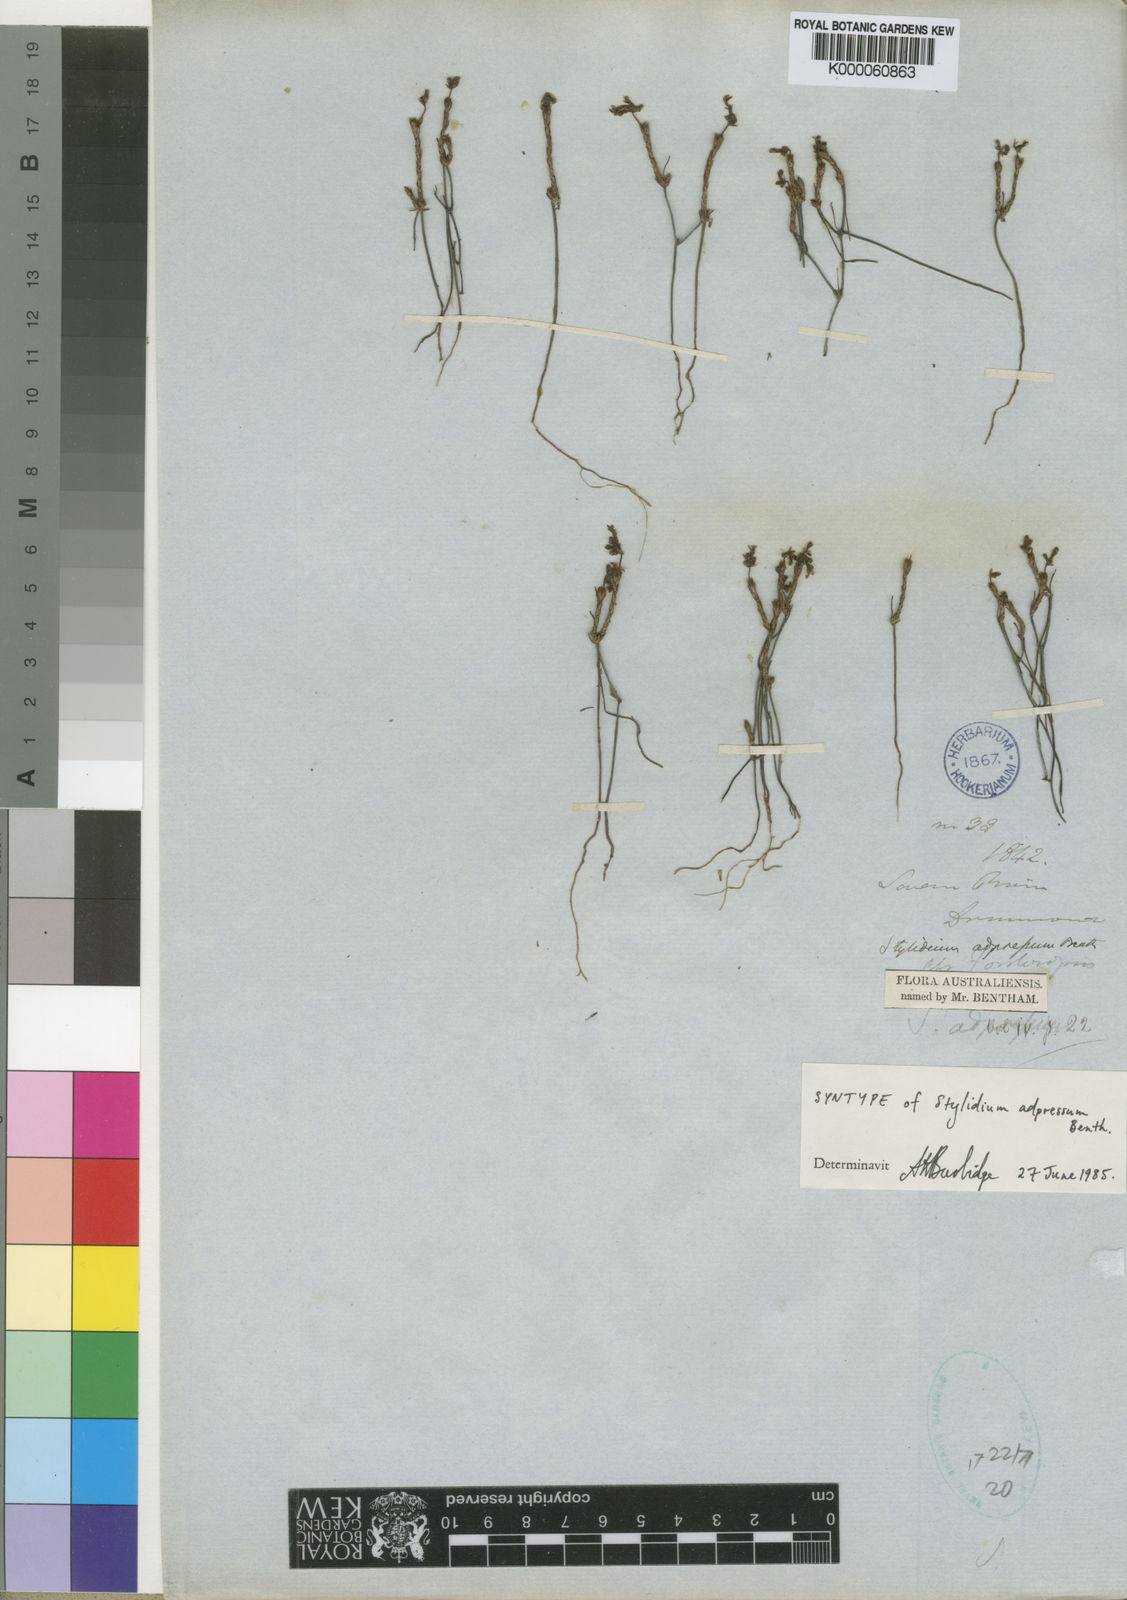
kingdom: Plantae
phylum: Tracheophyta
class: Magnoliopsida
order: Asterales
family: Stylidiaceae
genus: Stylidium
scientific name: Stylidium adpressum
